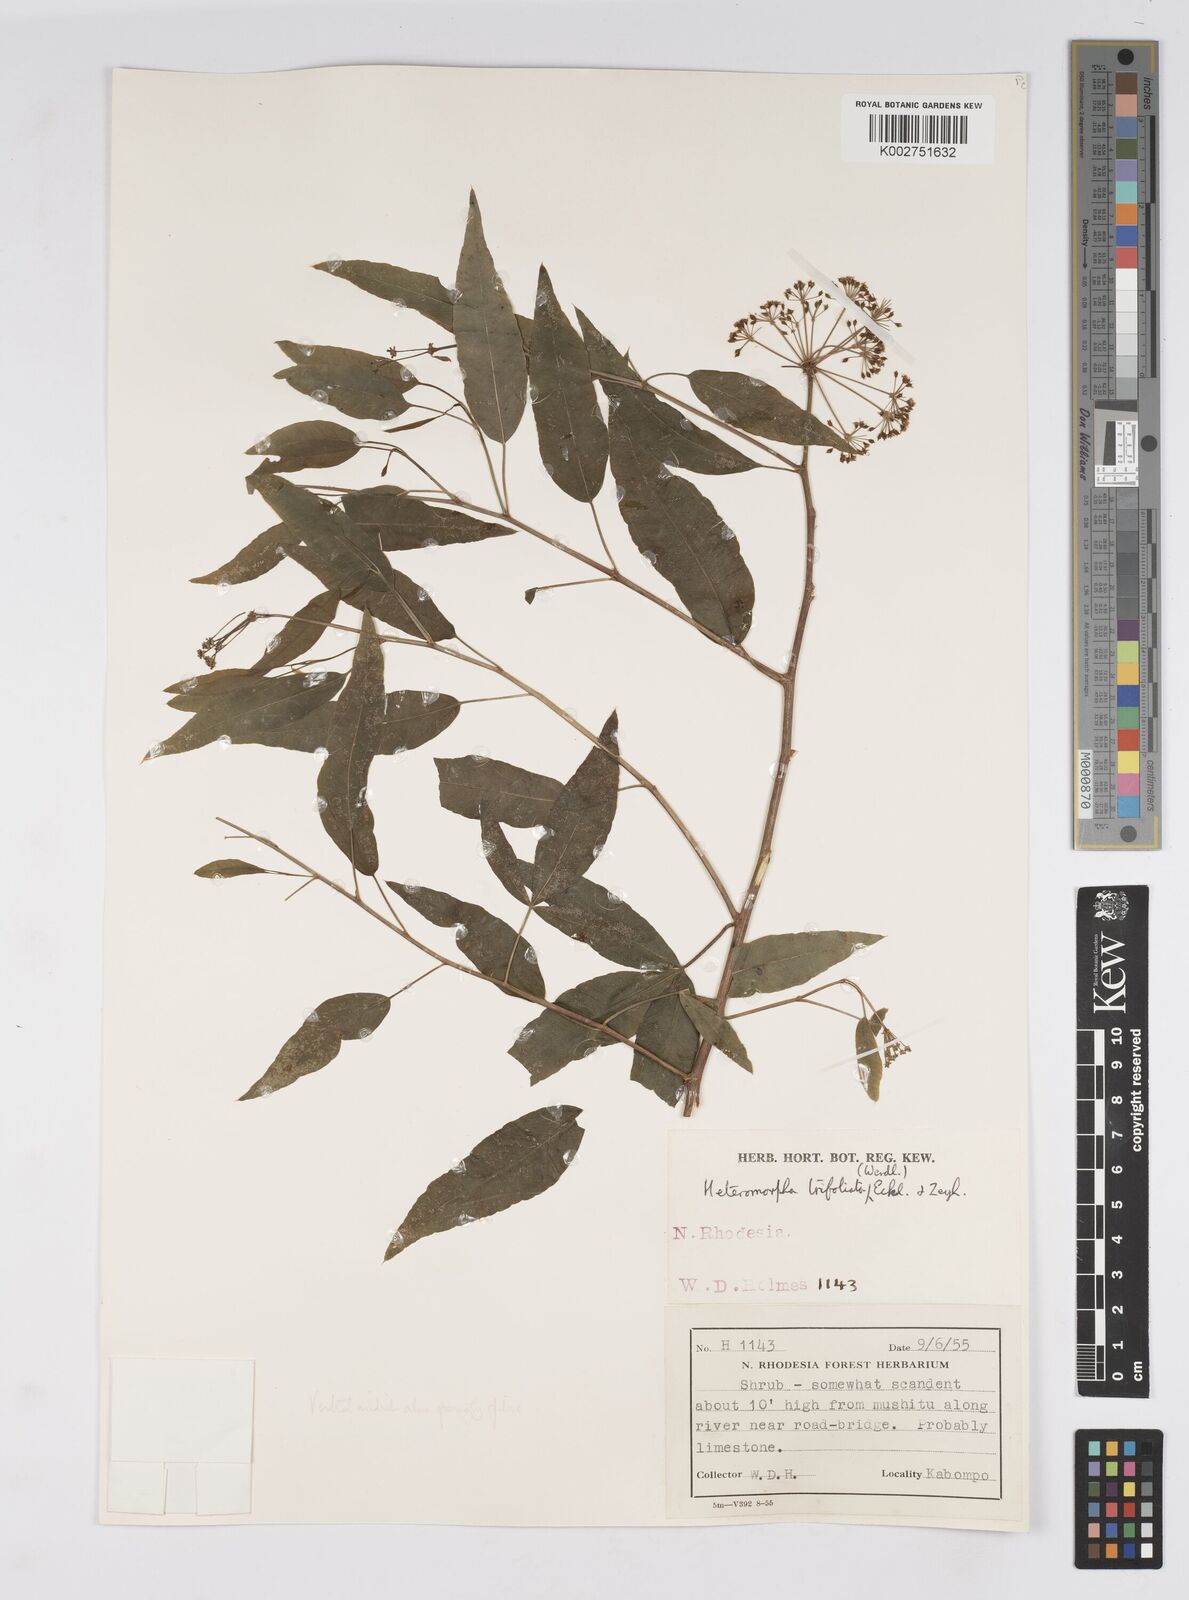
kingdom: Plantae
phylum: Tracheophyta
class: Magnoliopsida
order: Apiales
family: Apiaceae
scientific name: Apiaceae
